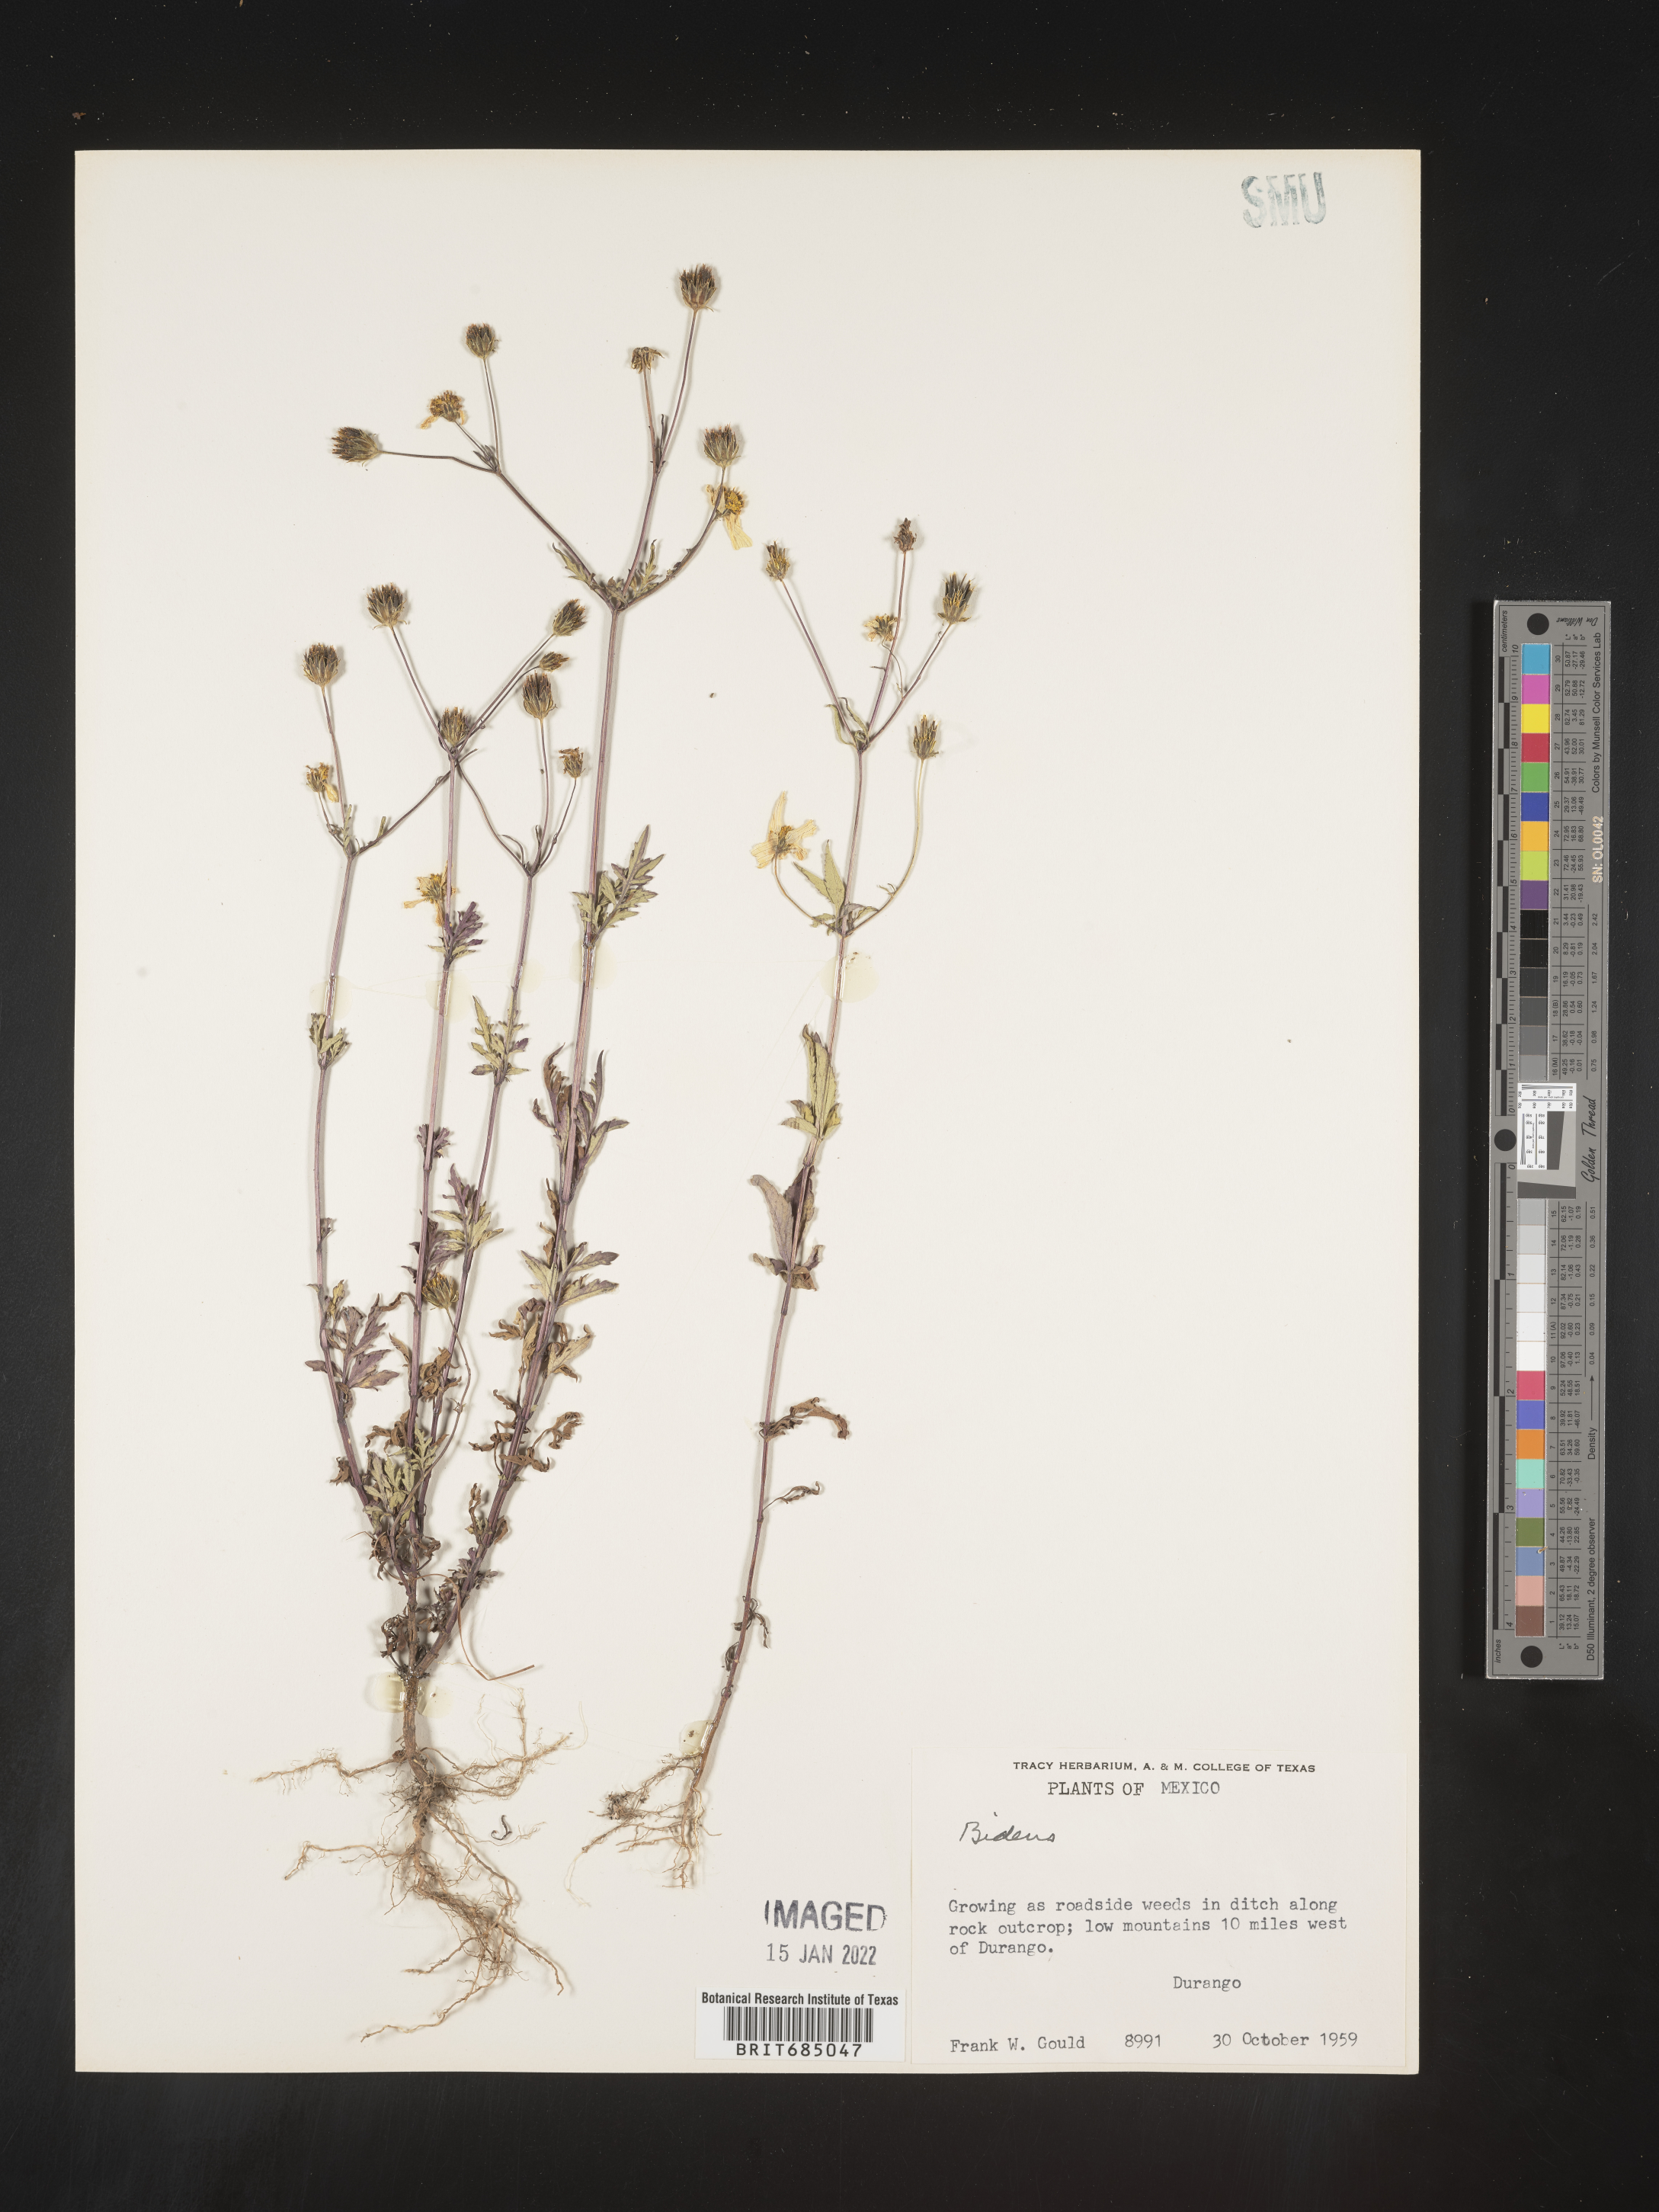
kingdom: Plantae
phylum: Tracheophyta
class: Magnoliopsida
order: Asterales
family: Asteraceae
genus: Bidens
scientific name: Bidens
